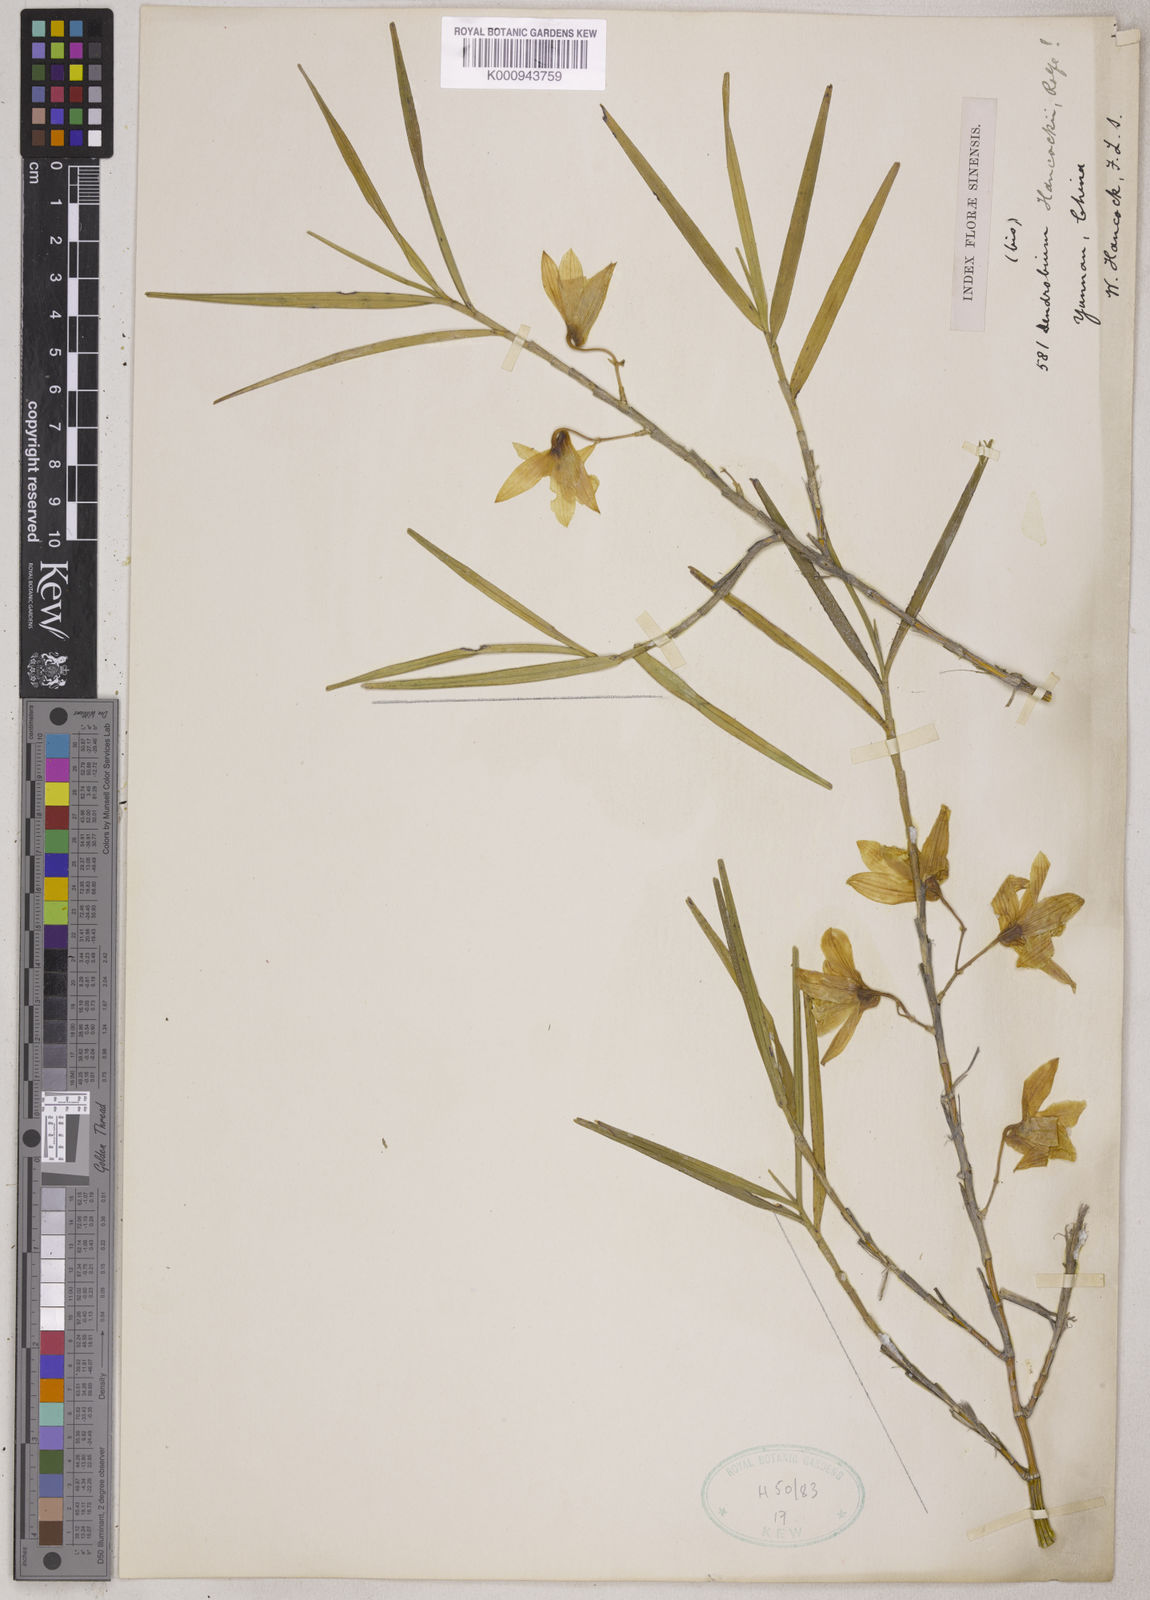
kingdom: Plantae
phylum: Tracheophyta
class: Liliopsida
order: Asparagales
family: Orchidaceae
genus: Dendrobium
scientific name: Dendrobium hancockii
